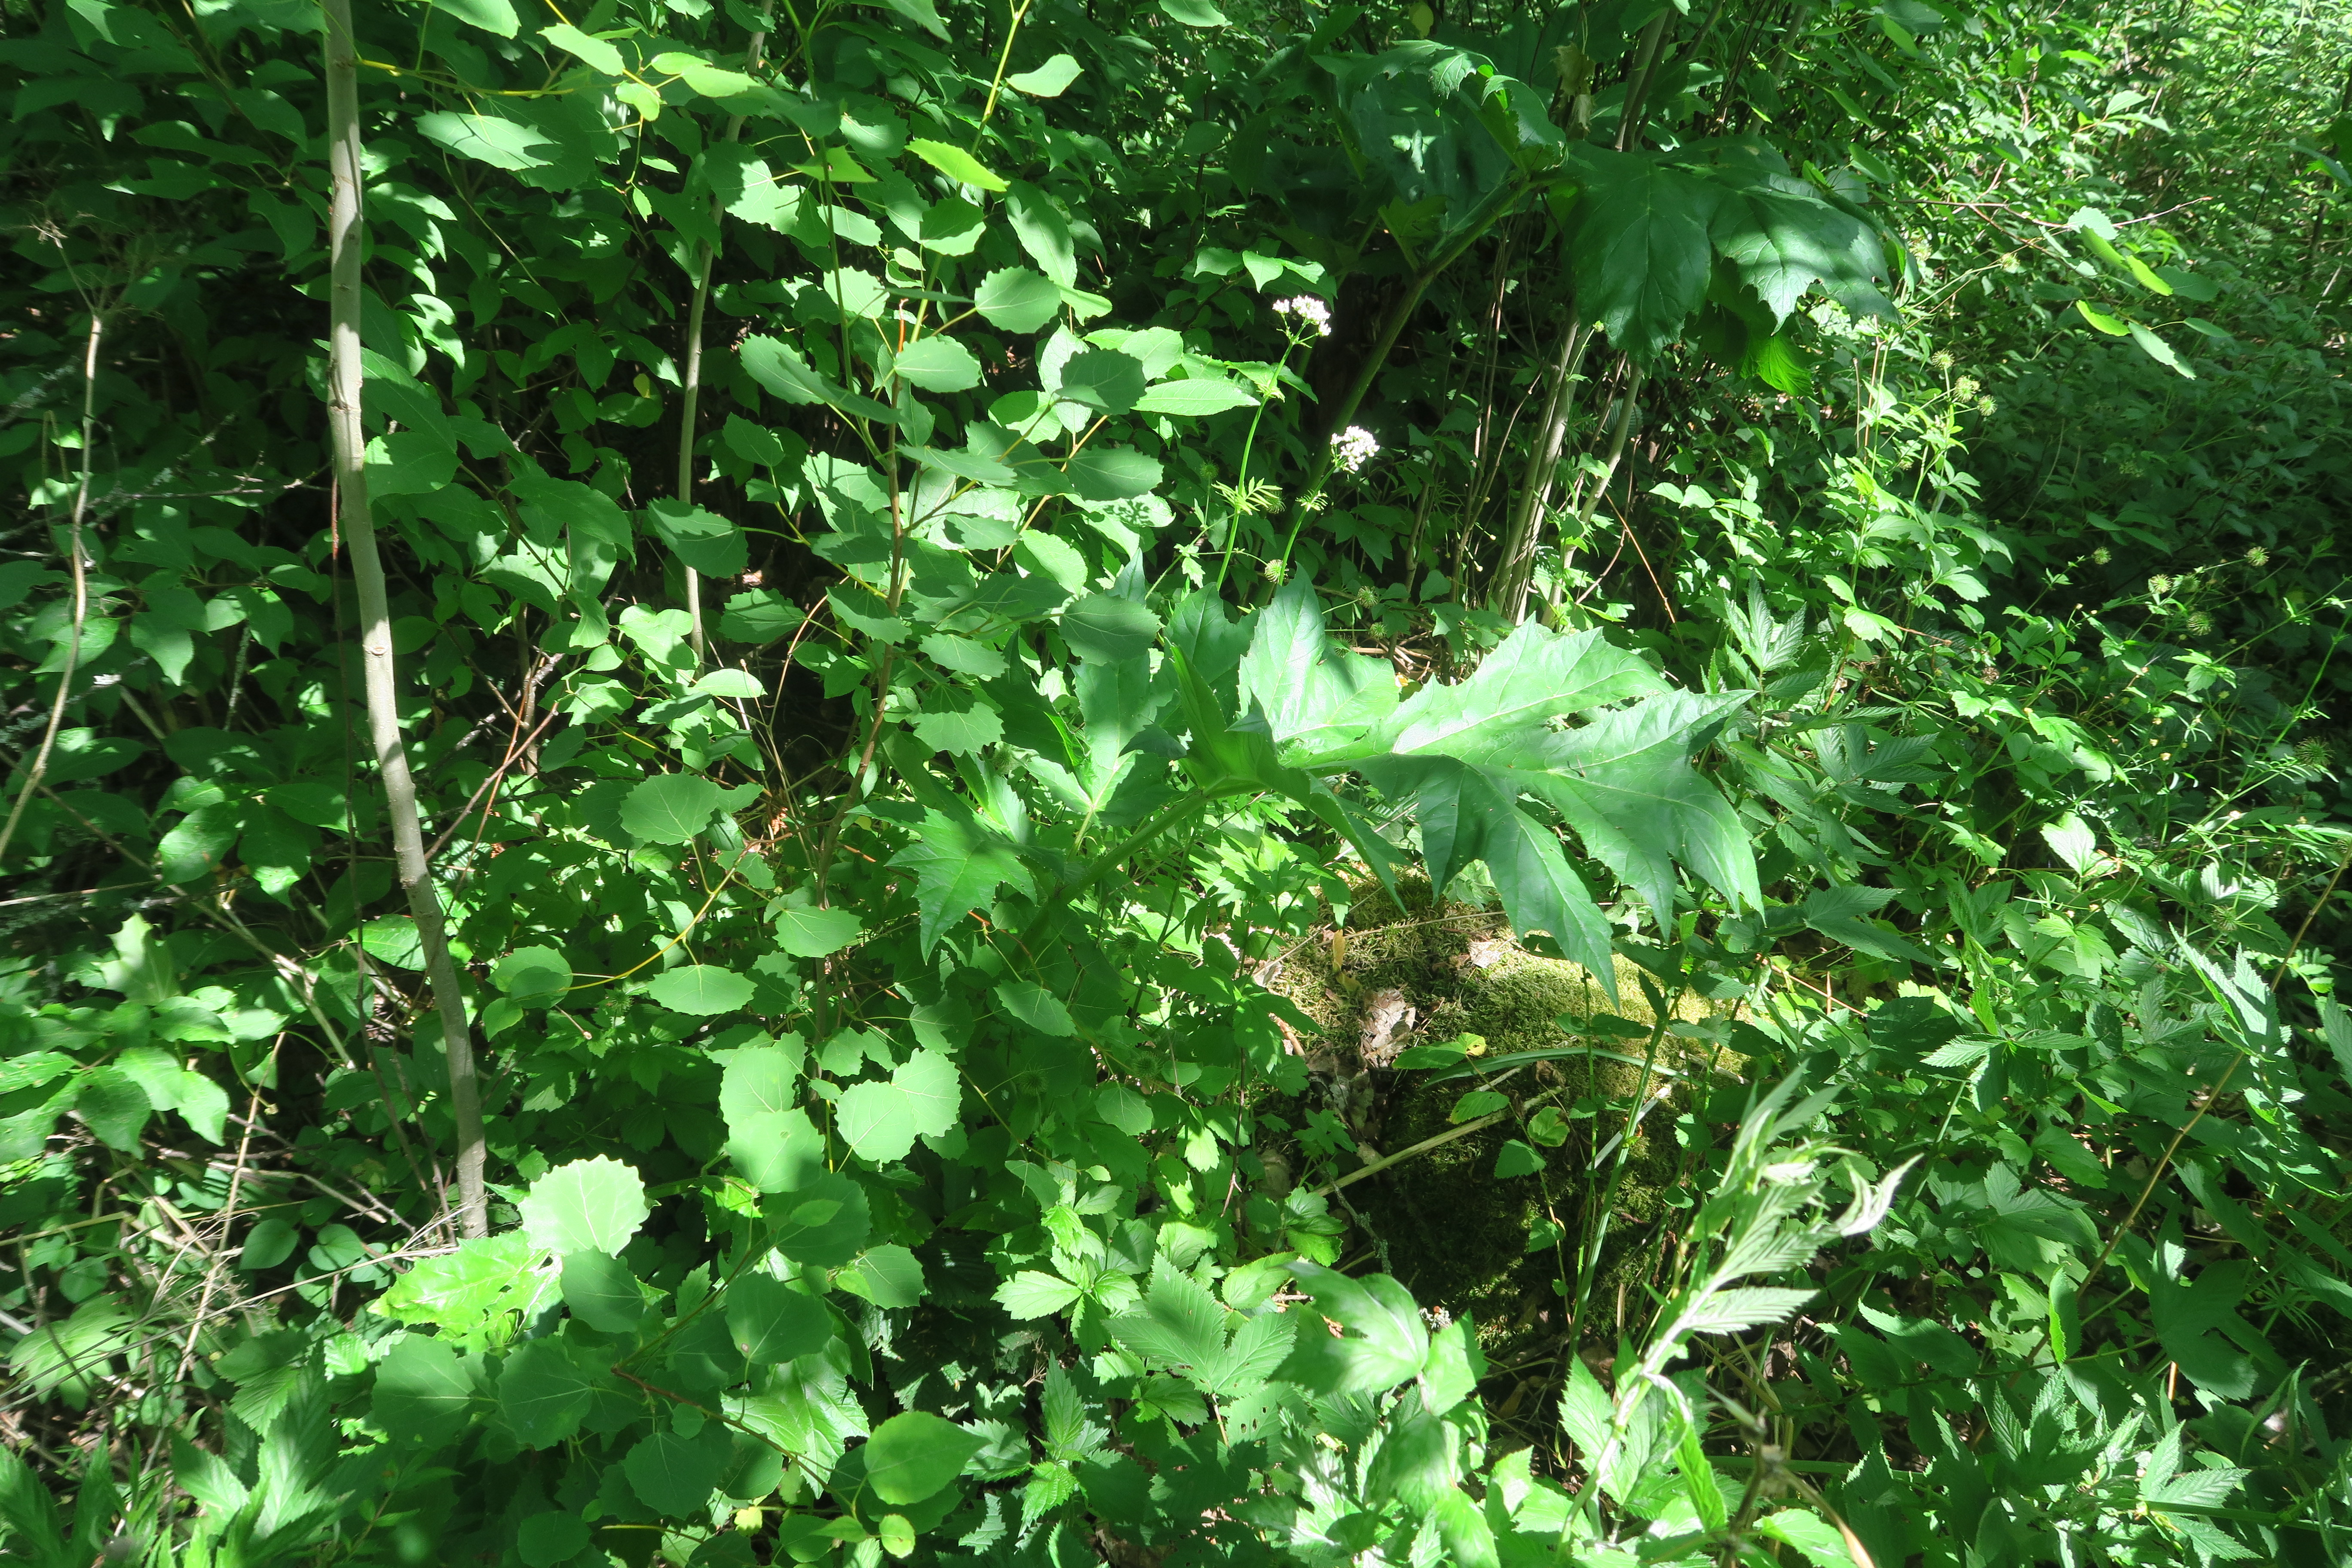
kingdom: Plantae
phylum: Tracheophyta
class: Magnoliopsida
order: Apiales
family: Apiaceae
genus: Heracleum
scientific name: Heracleum
